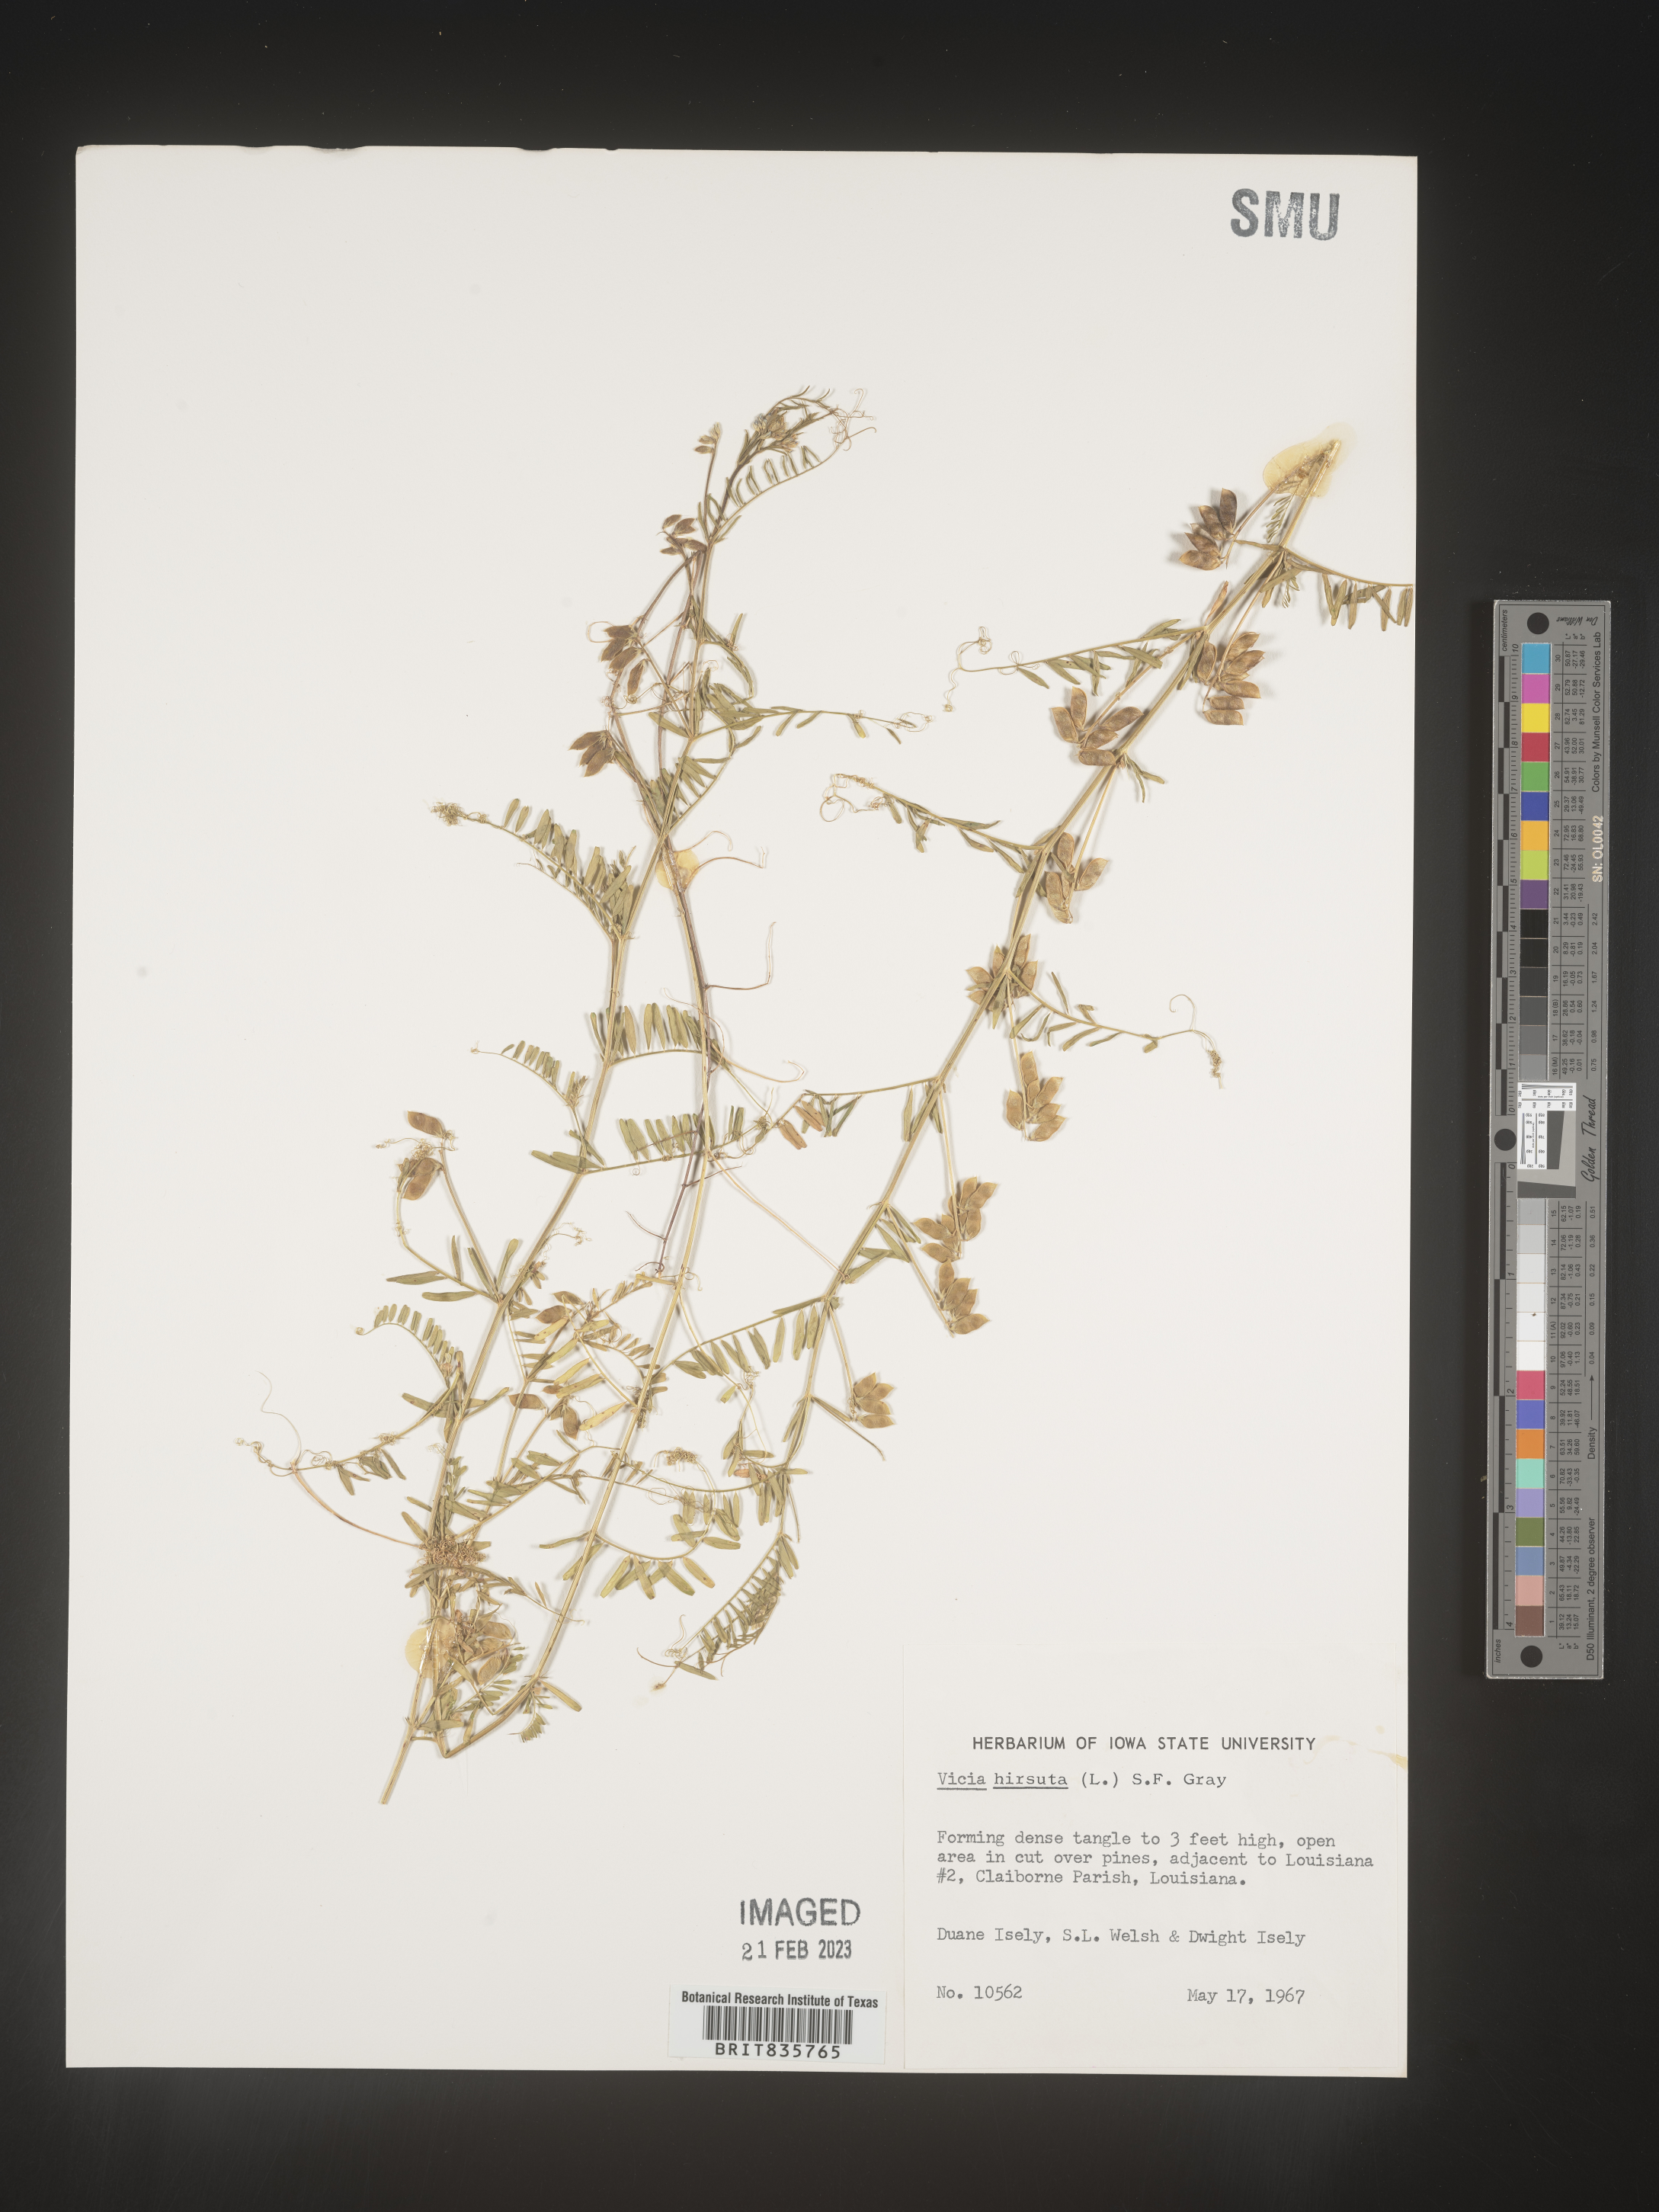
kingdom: Plantae
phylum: Tracheophyta
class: Magnoliopsida
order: Fabales
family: Fabaceae
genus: Vicia
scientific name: Vicia
